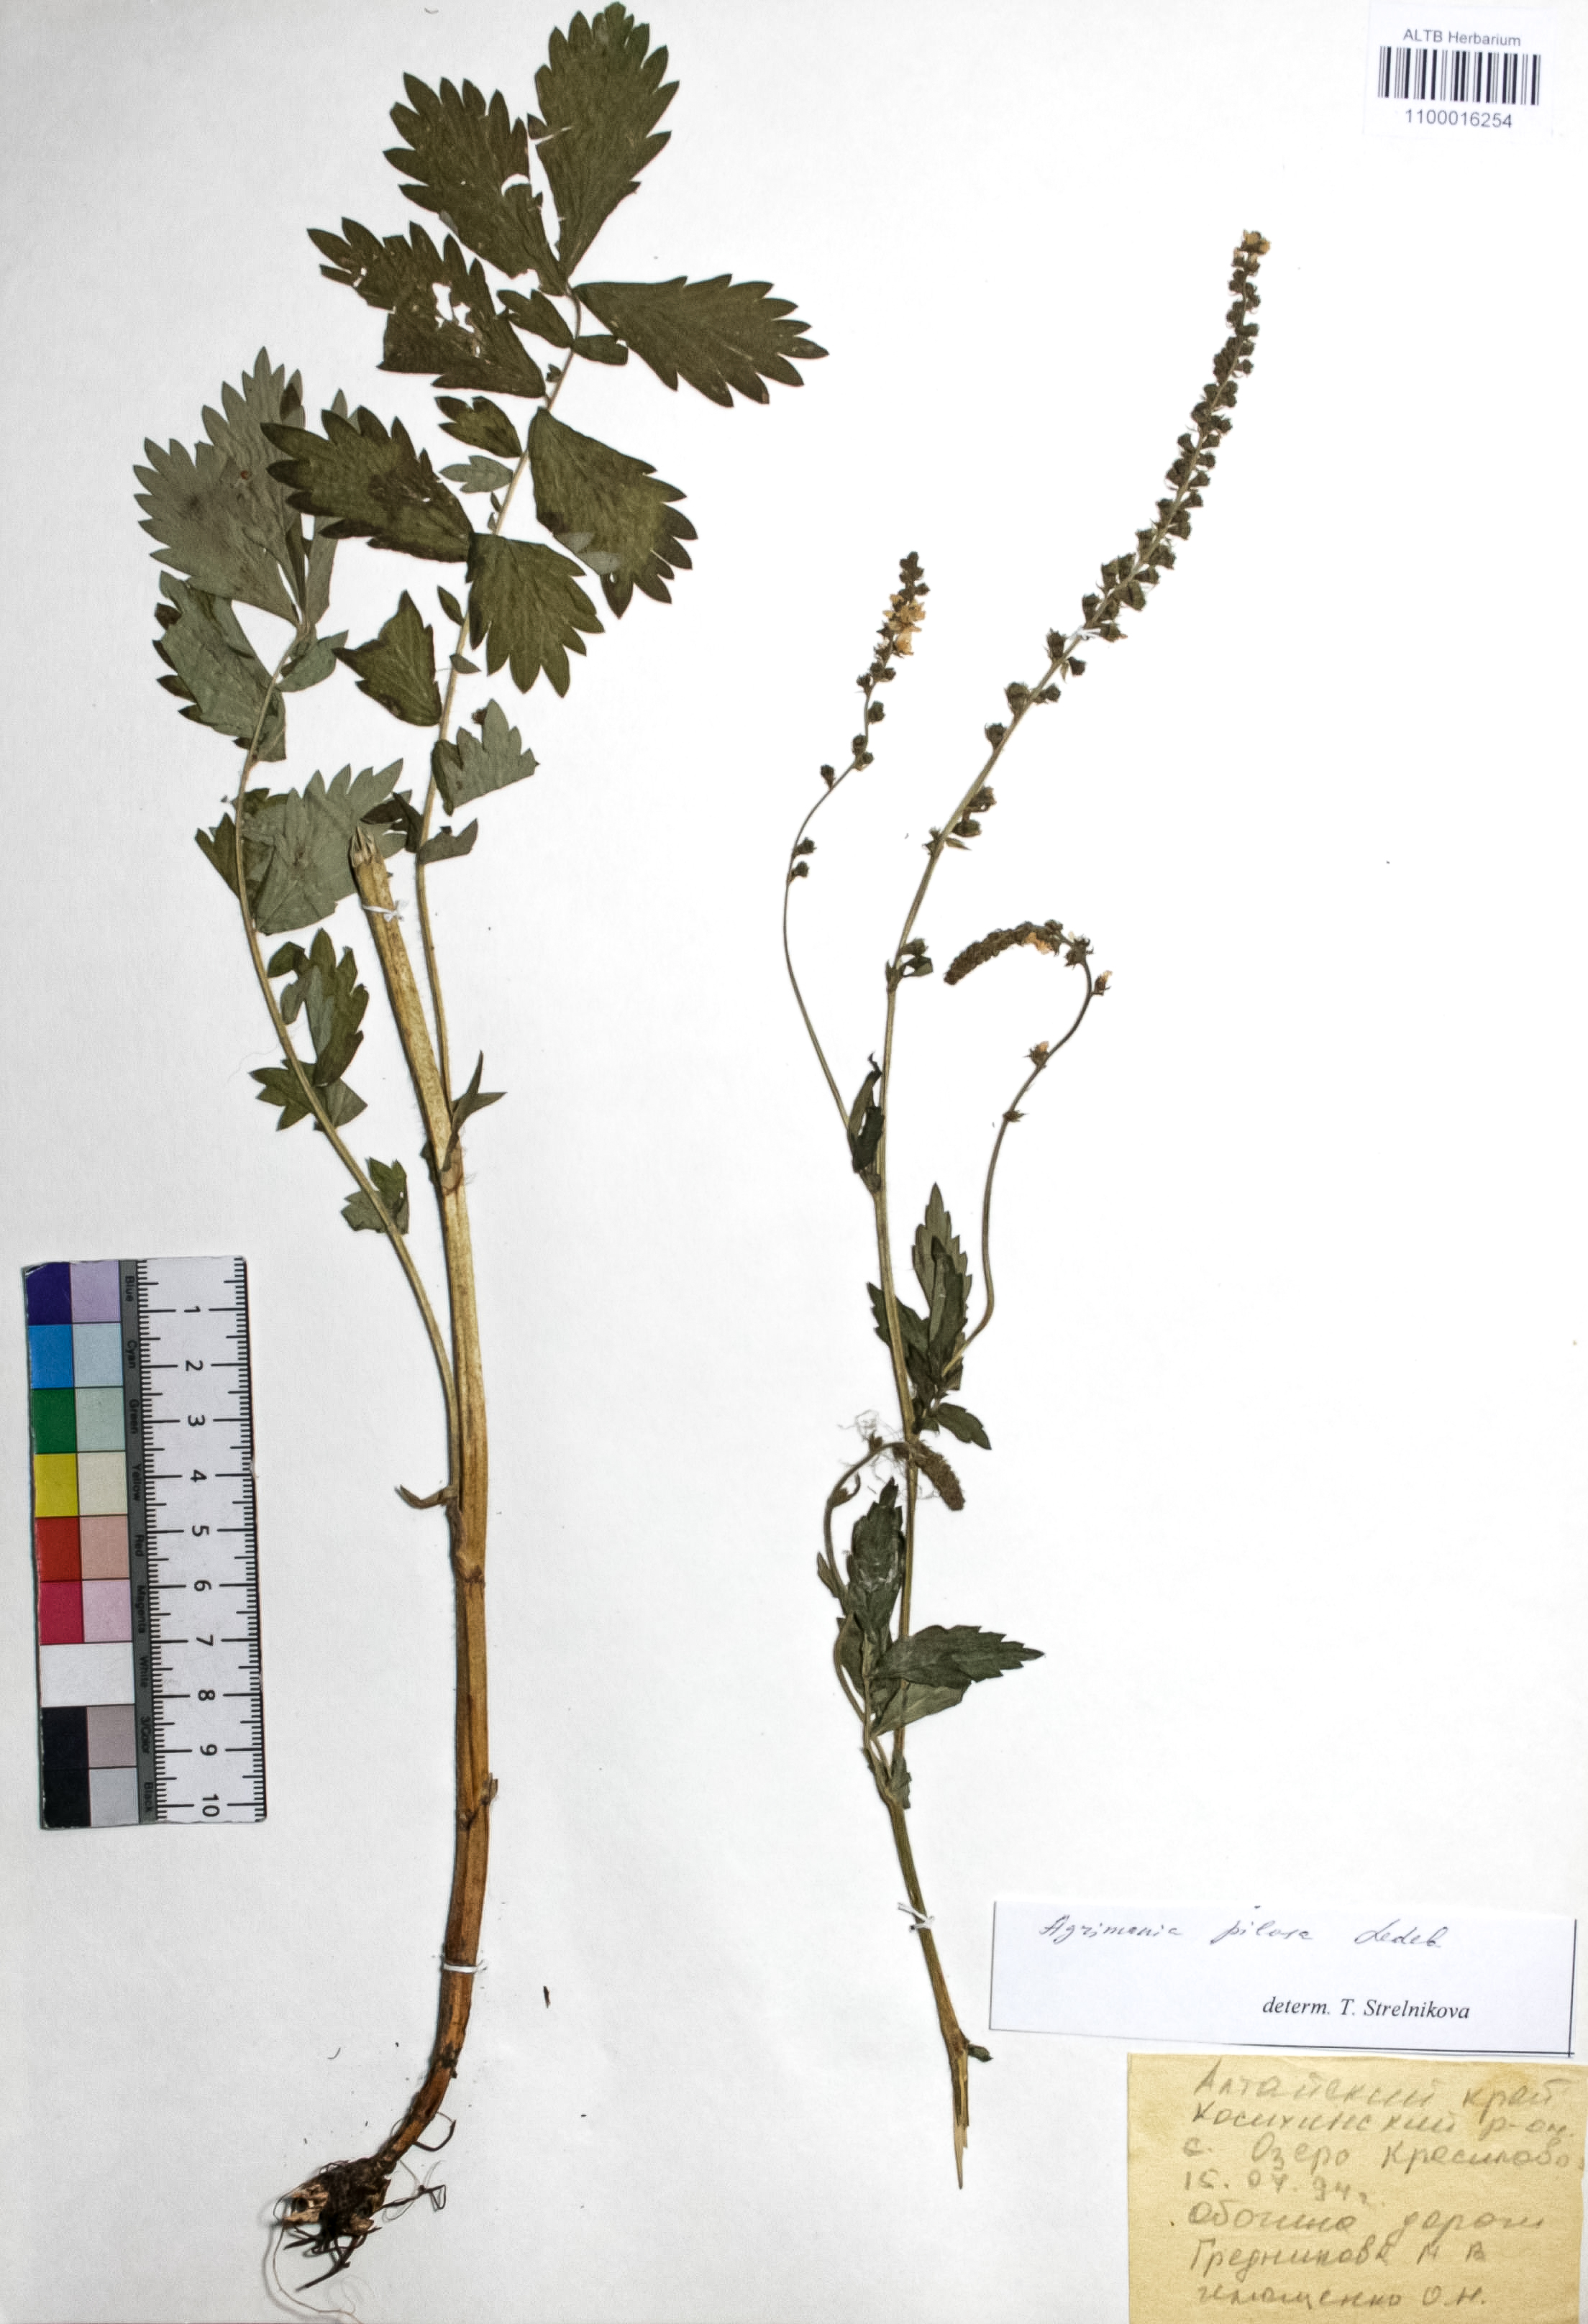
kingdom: Plantae
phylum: Tracheophyta
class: Magnoliopsida
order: Rosales
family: Rosaceae
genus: Agrimonia
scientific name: Agrimonia pilosa
